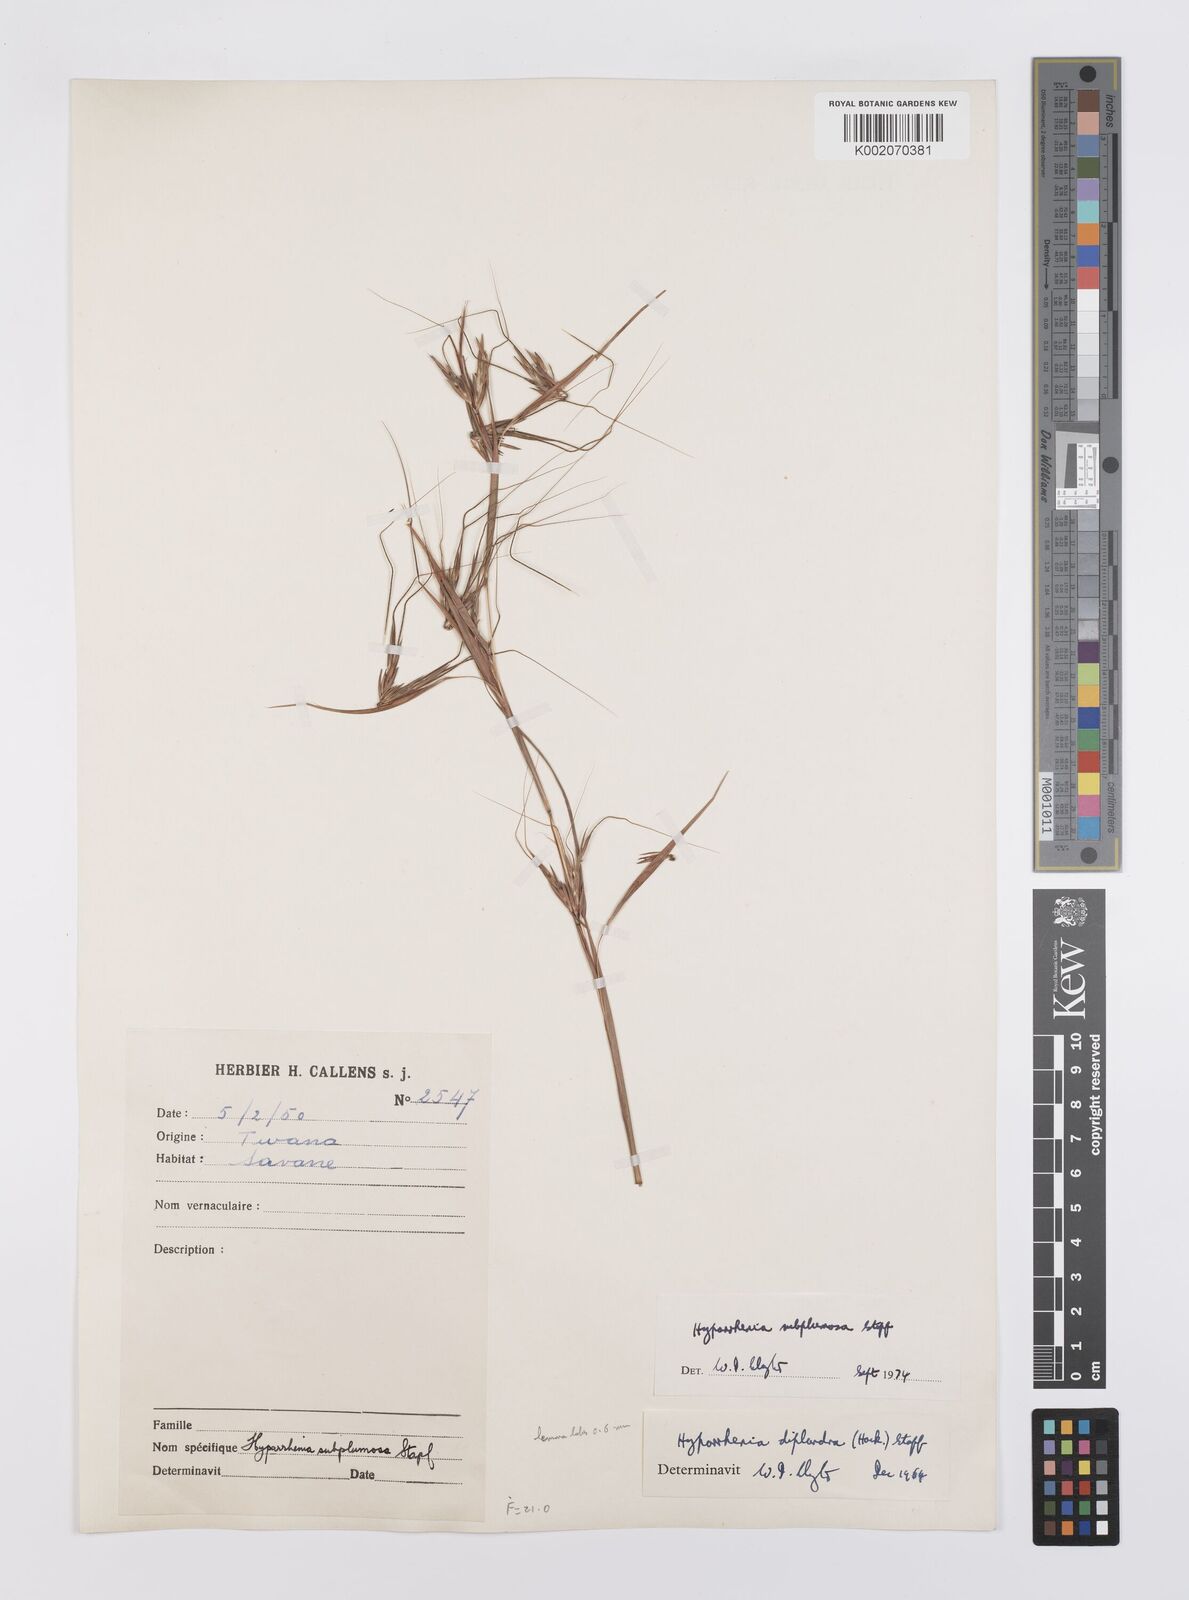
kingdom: Plantae
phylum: Tracheophyta
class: Liliopsida
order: Poales
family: Poaceae
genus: Hyparrhenia
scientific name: Hyparrhenia subplumosa
